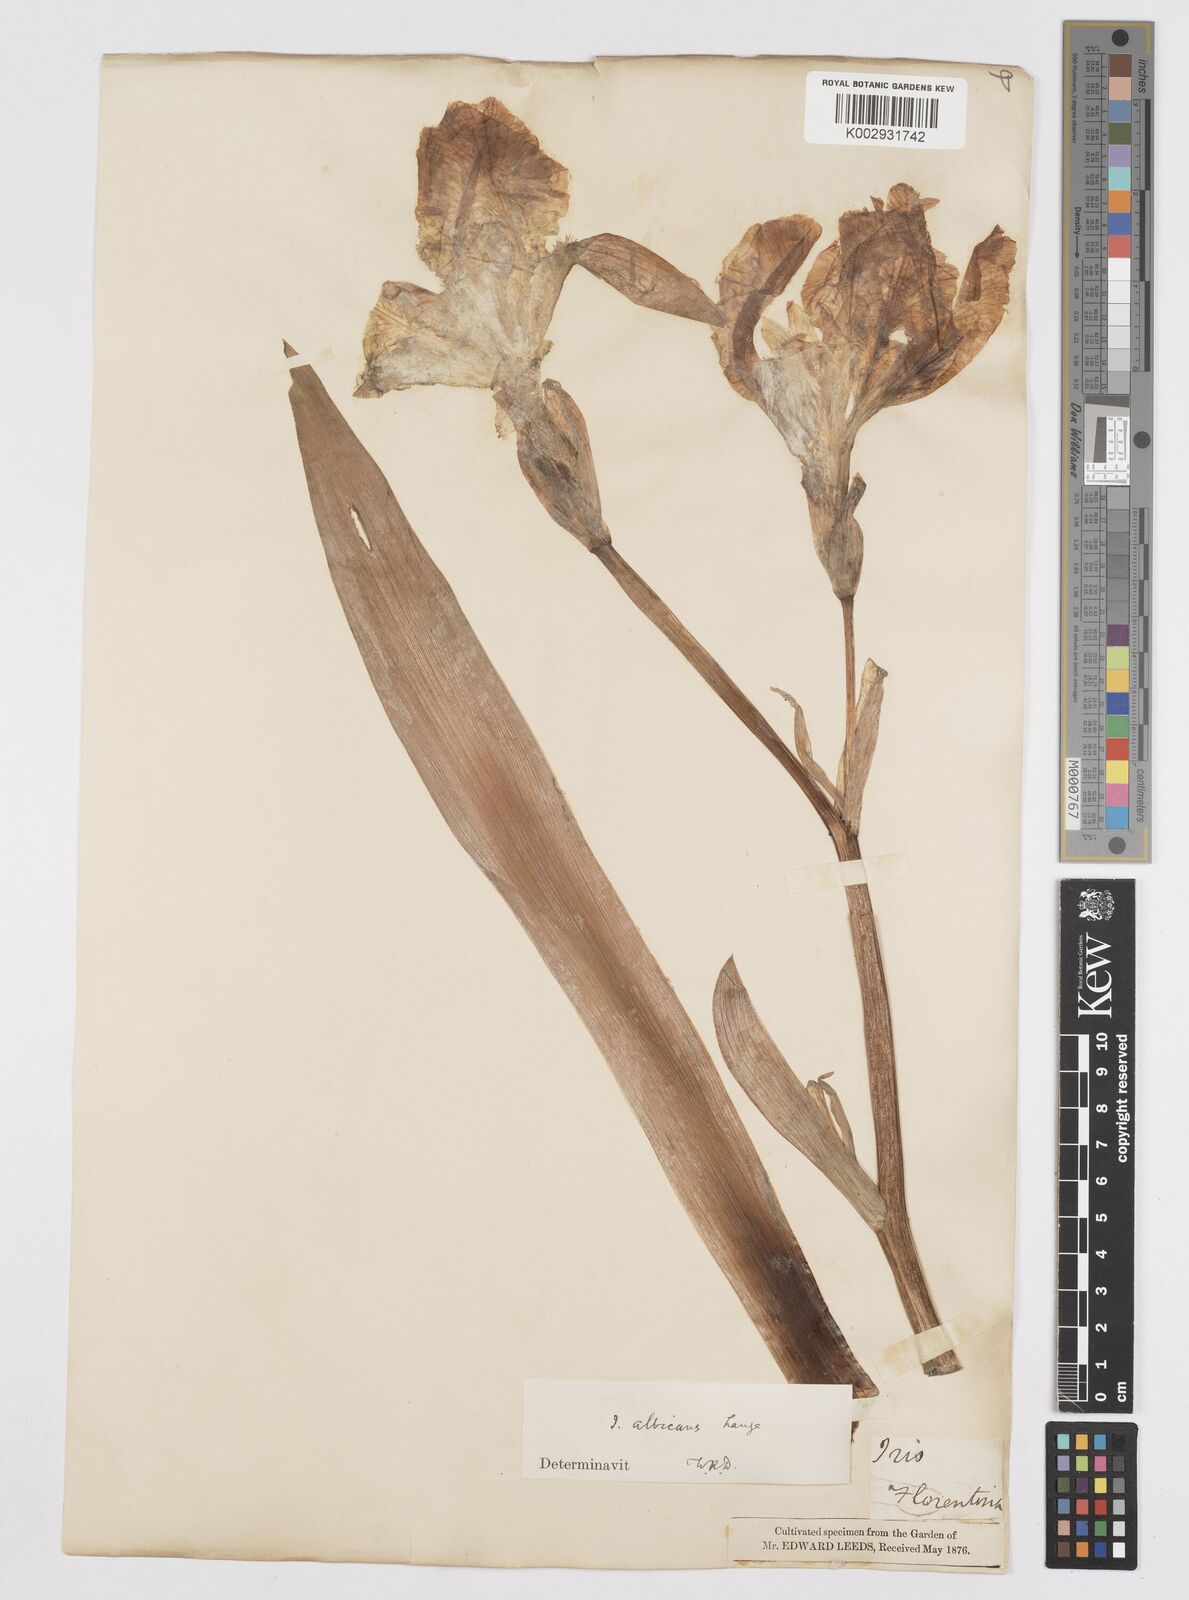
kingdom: Plantae
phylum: Tracheophyta
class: Liliopsida
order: Asparagales
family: Iridaceae
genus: Iris
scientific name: Iris florentina
